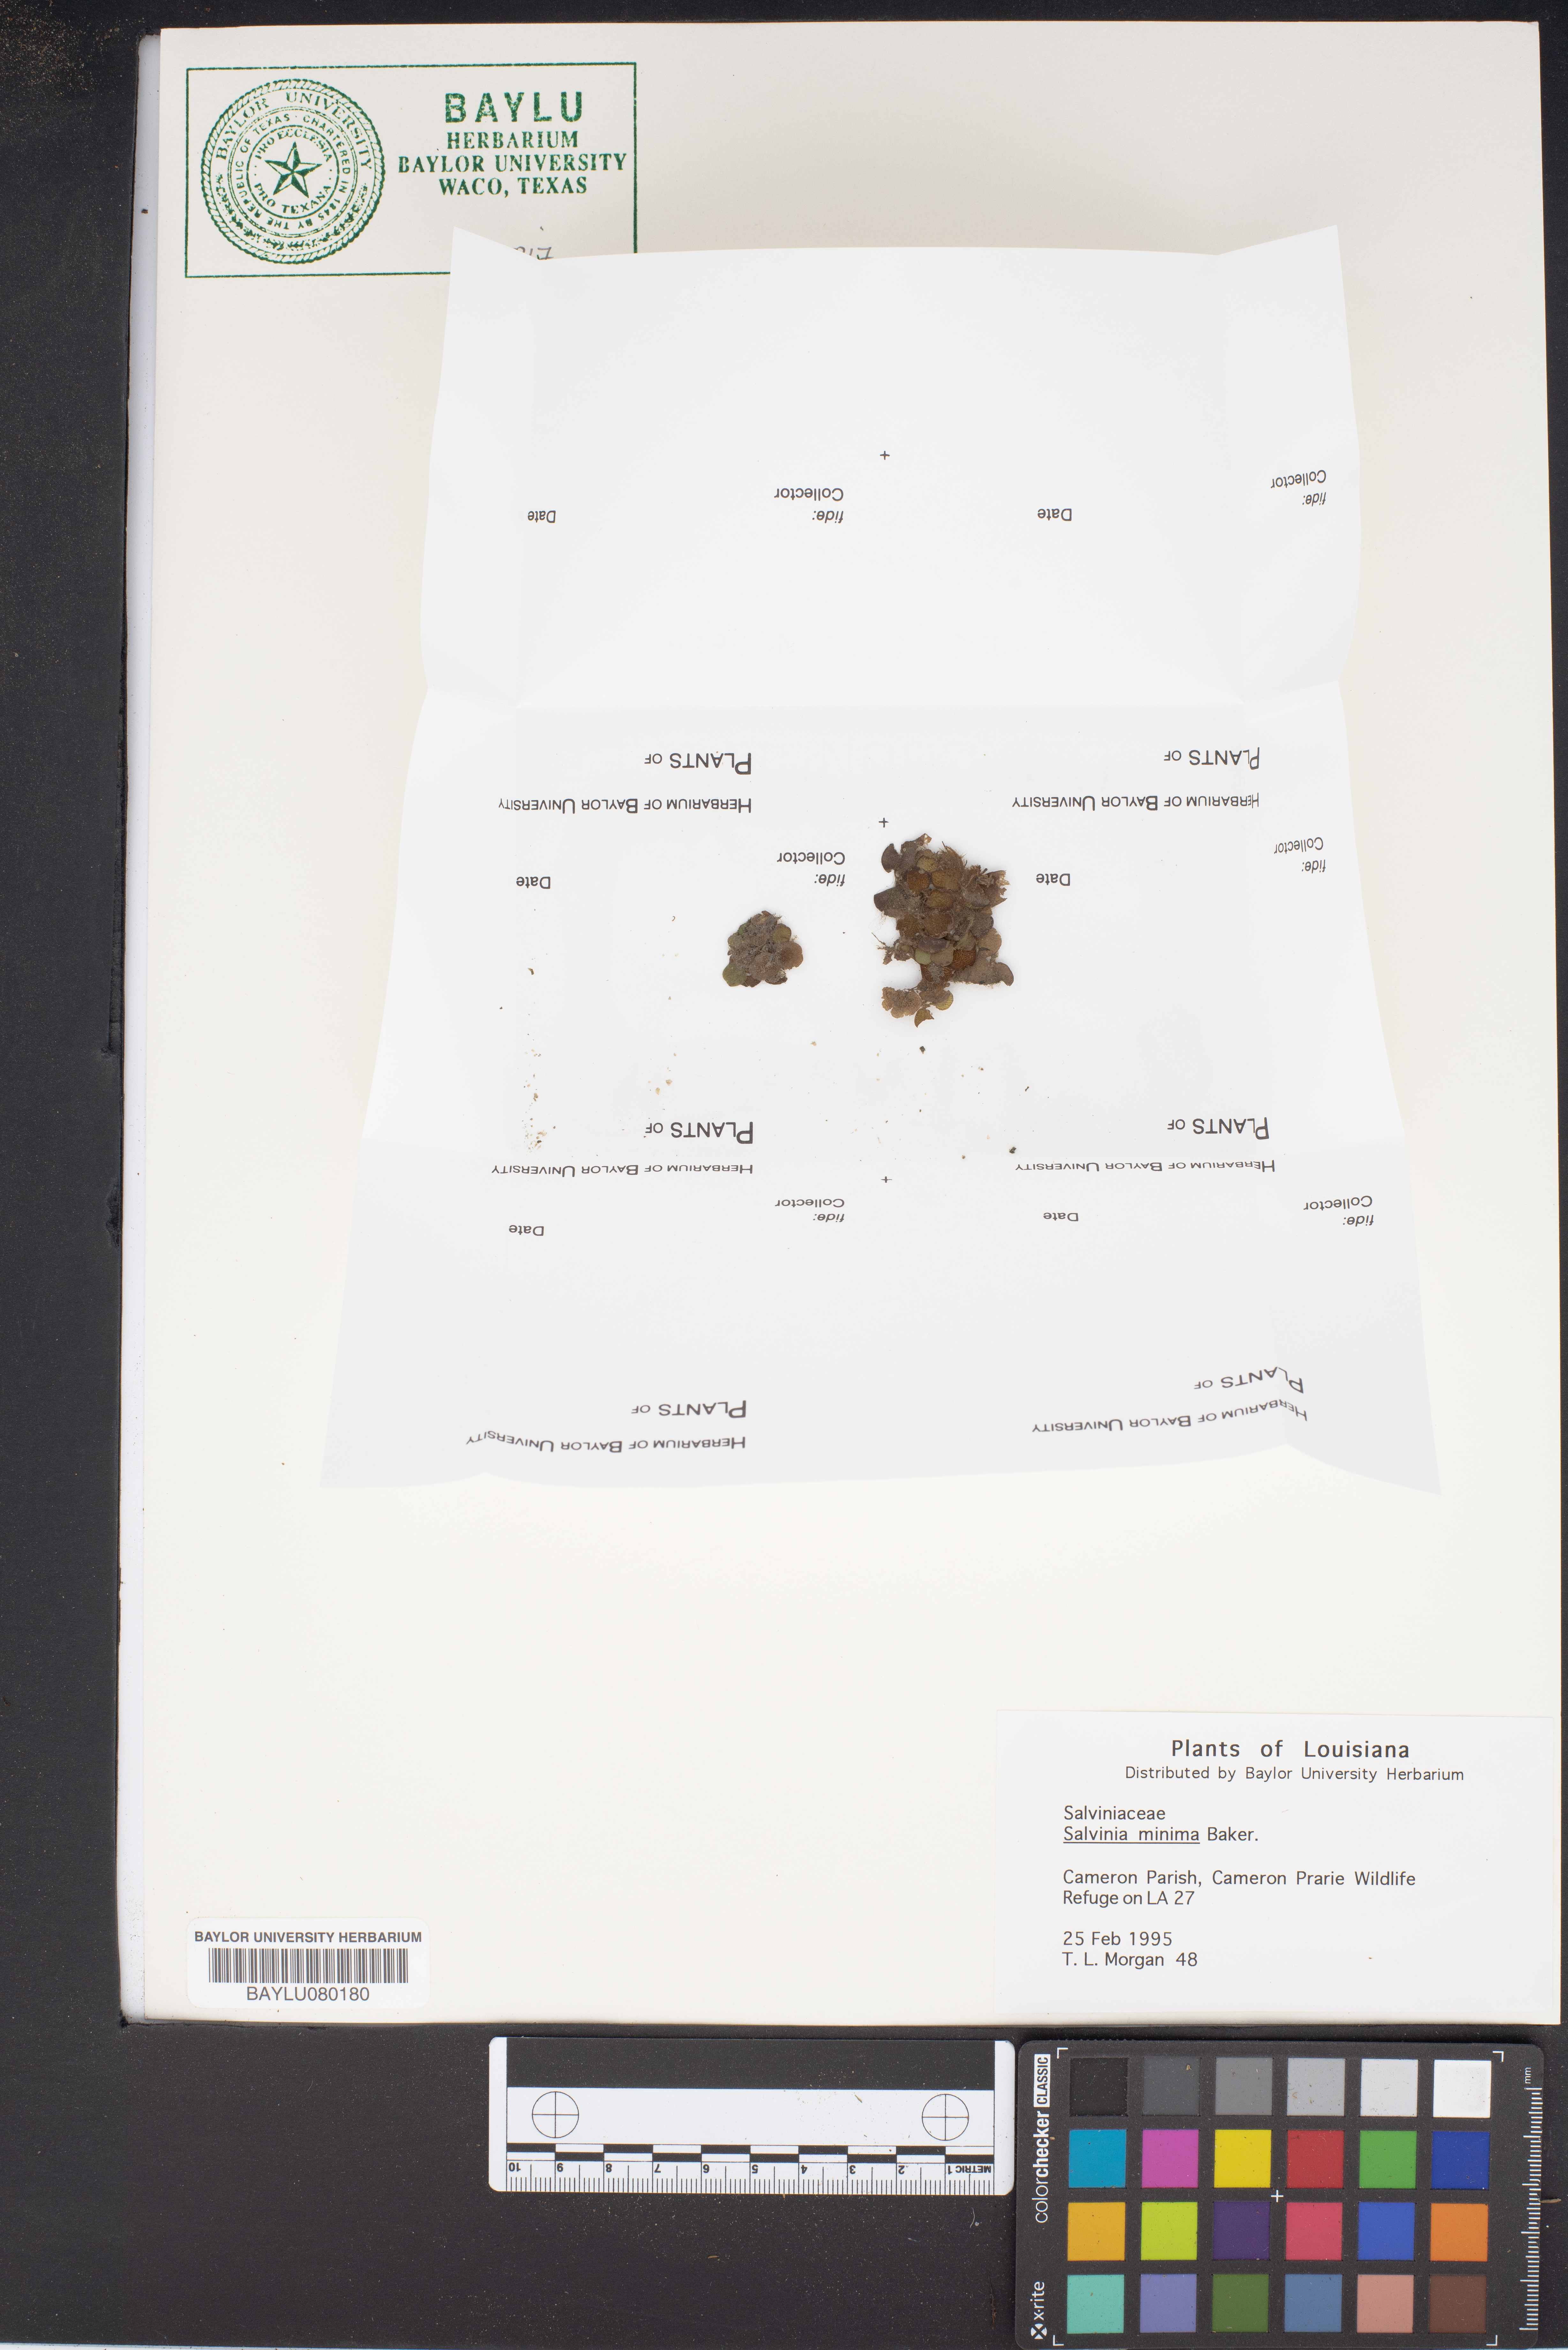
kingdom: Plantae
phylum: Tracheophyta
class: Polypodiopsida
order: Salviniales
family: Salviniaceae
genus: Salvinia
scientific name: Salvinia minima
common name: Water spangles
